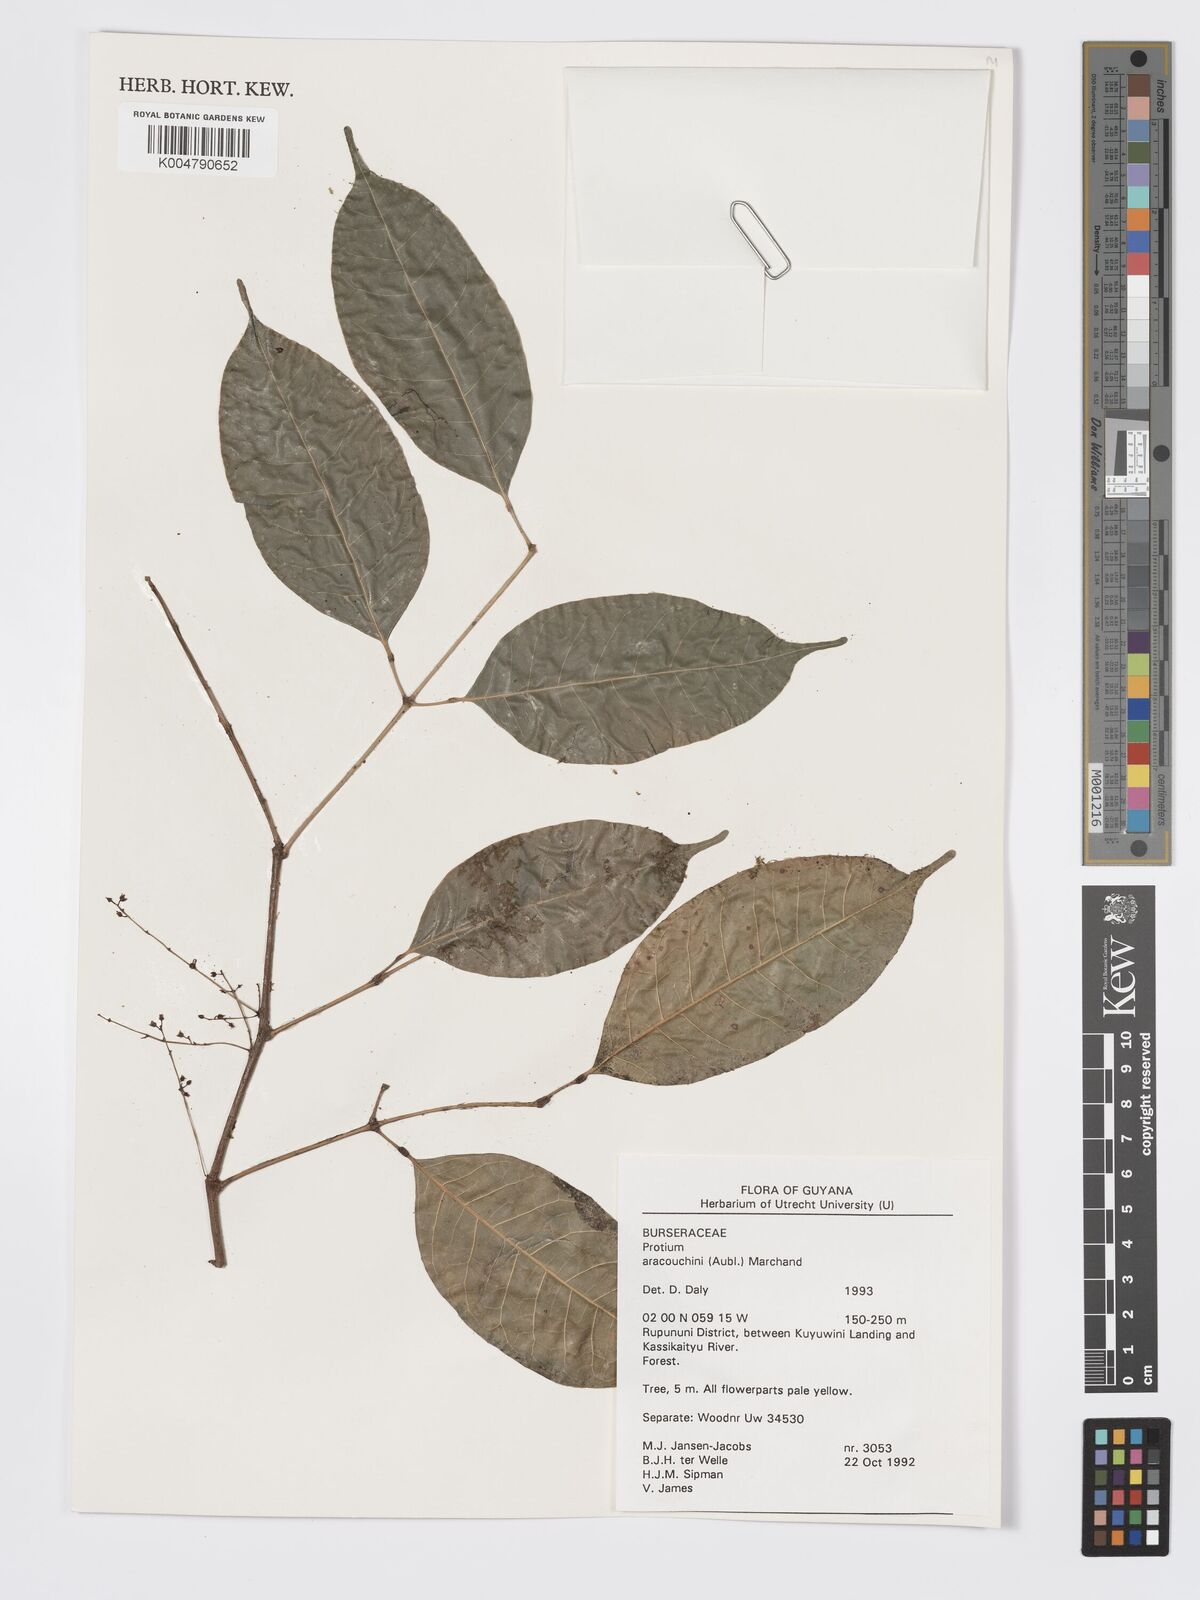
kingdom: Plantae
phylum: Tracheophyta
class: Magnoliopsida
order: Sapindales
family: Burseraceae
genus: Protium
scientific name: Protium aracouchini
